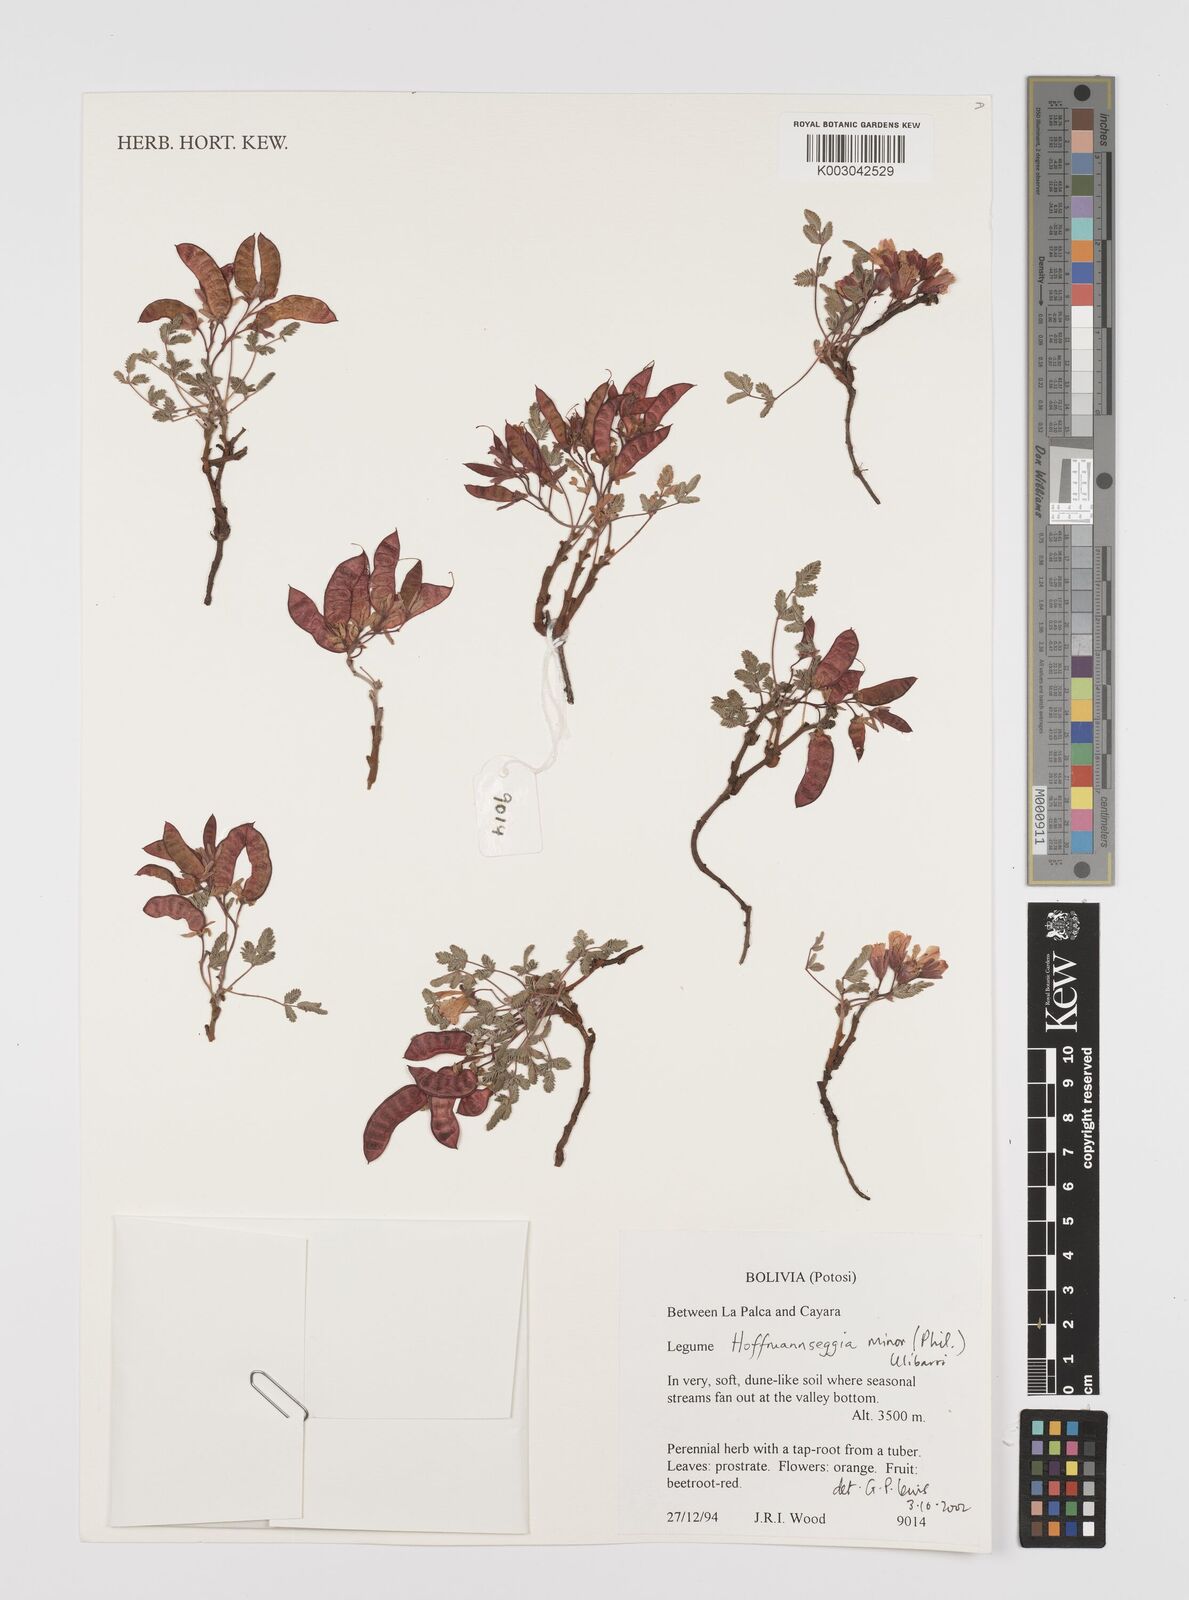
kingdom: Plantae
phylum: Tracheophyta
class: Magnoliopsida
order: Fabales
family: Fabaceae
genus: Hoffmannseggia
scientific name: Hoffmannseggia minor
